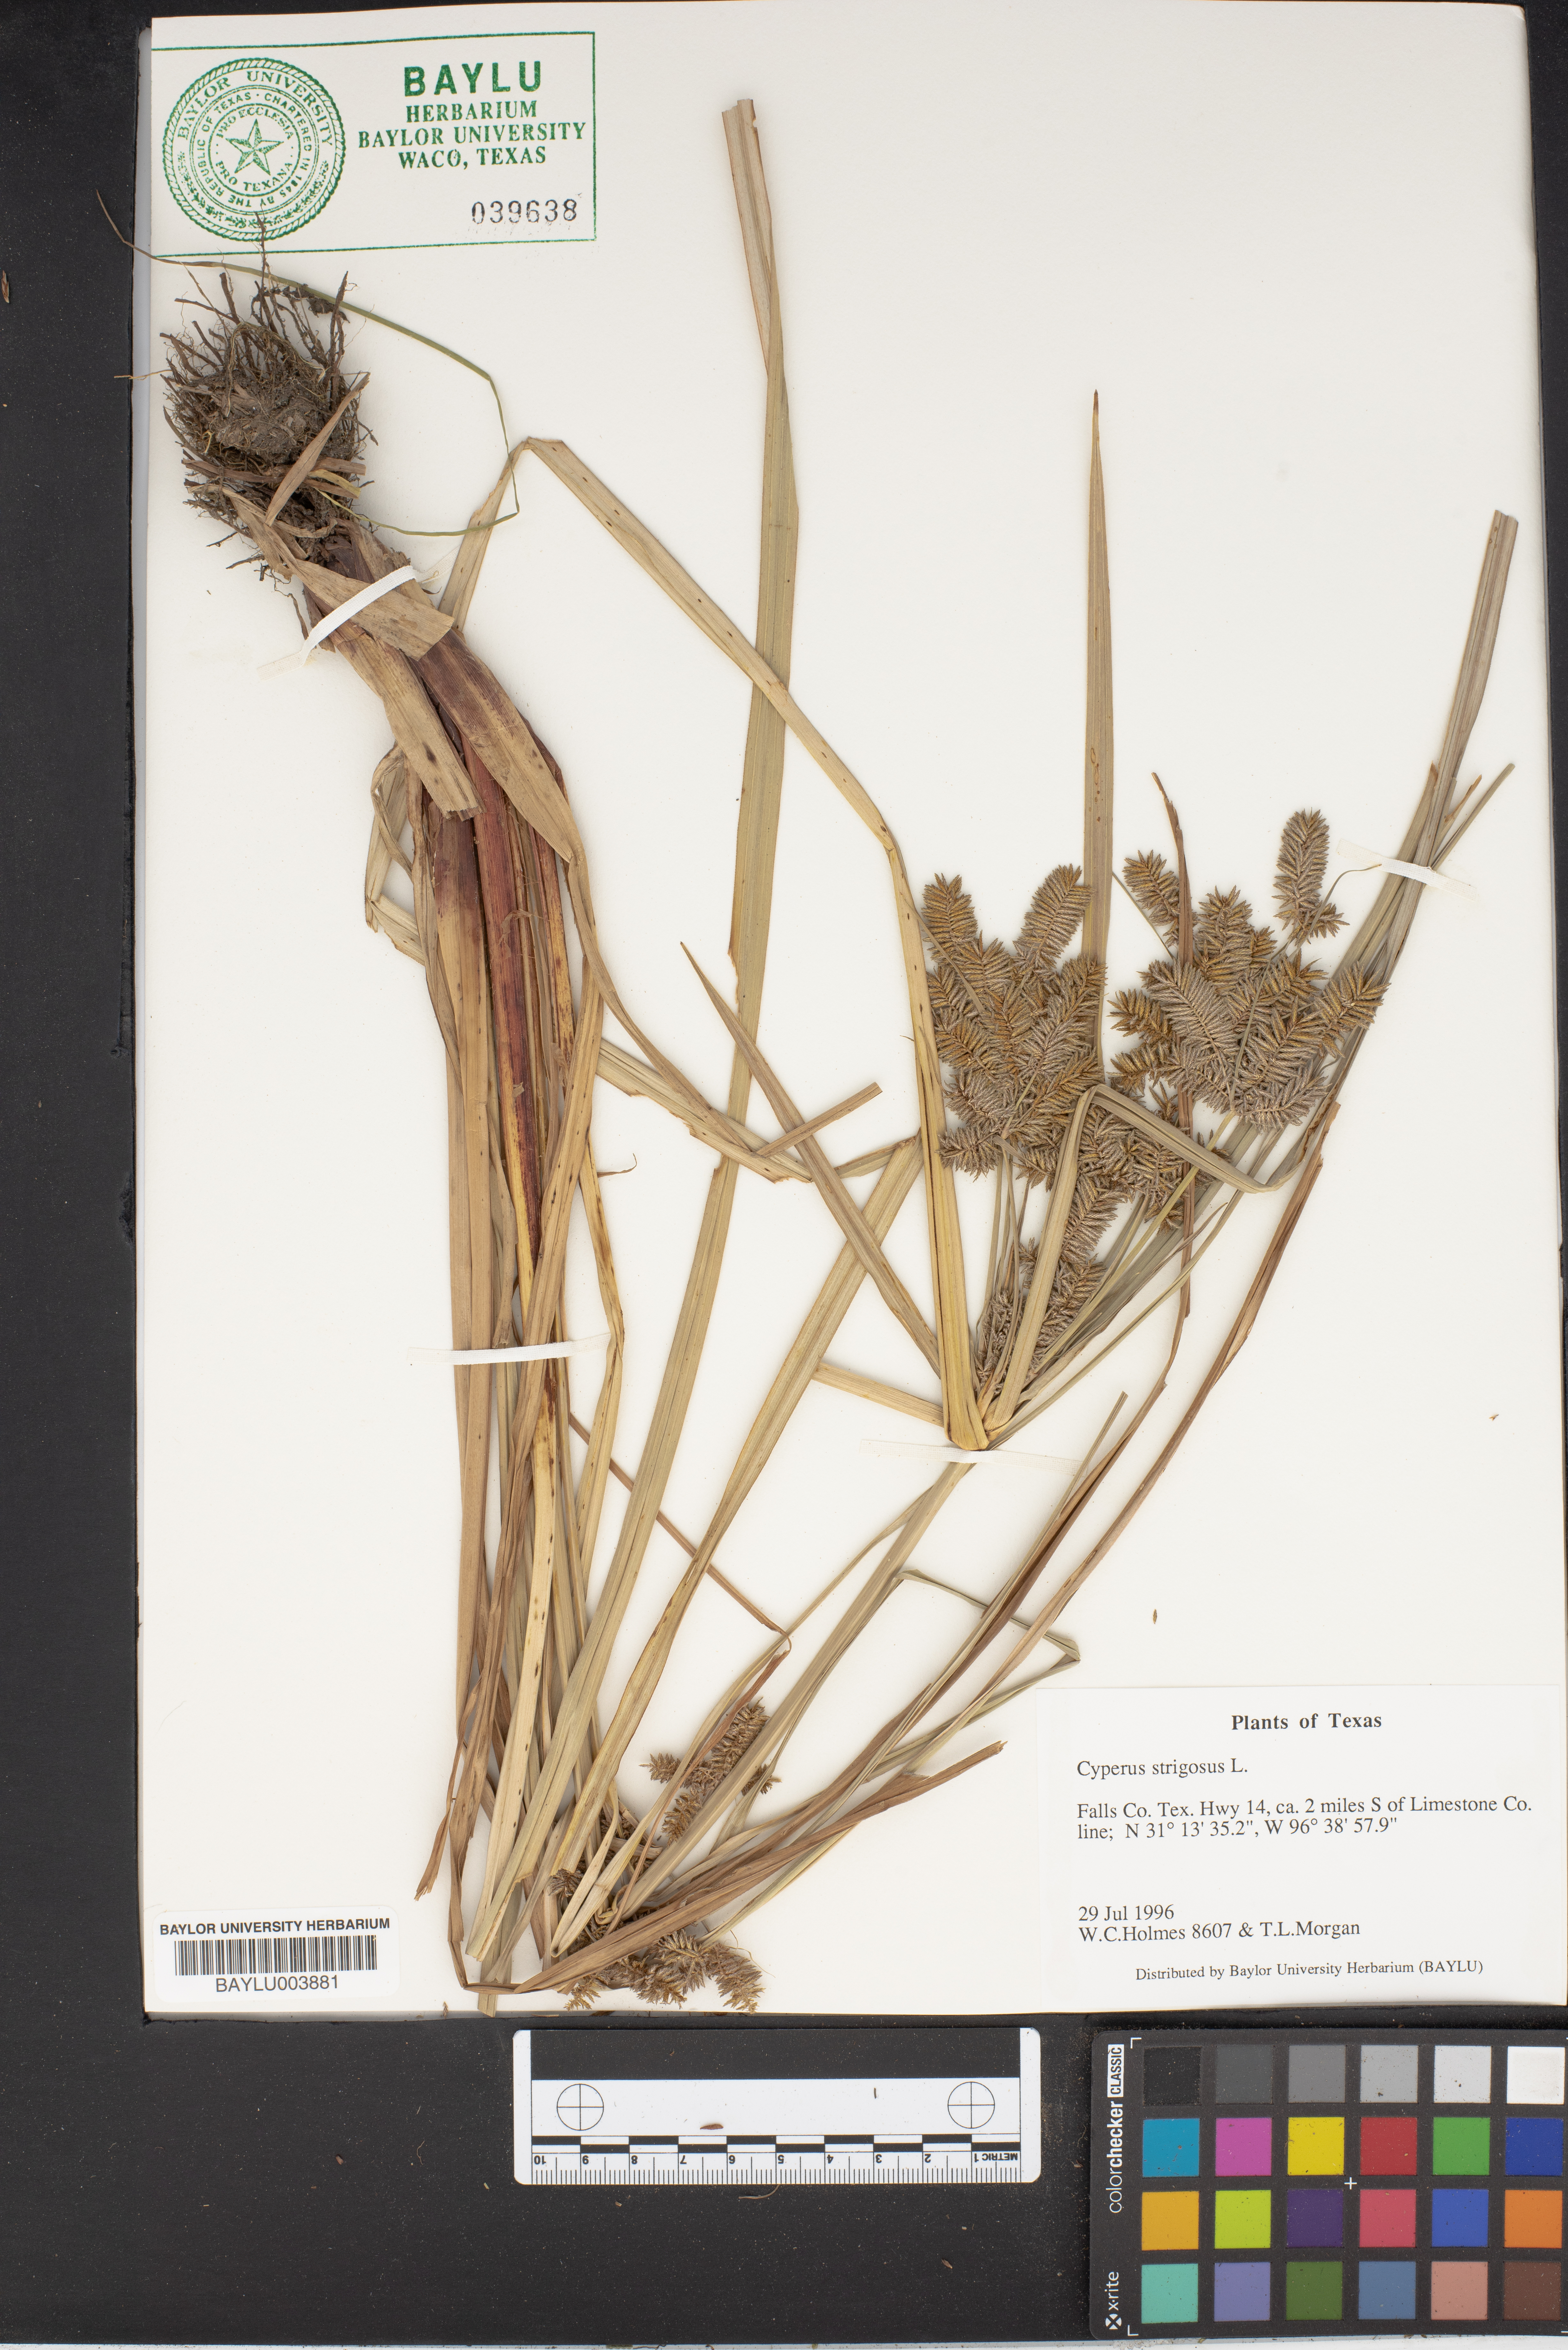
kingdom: Plantae
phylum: Tracheophyta
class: Liliopsida
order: Poales
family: Cyperaceae
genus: Cyperus
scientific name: Cyperus strigosus
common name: False nutsedge
